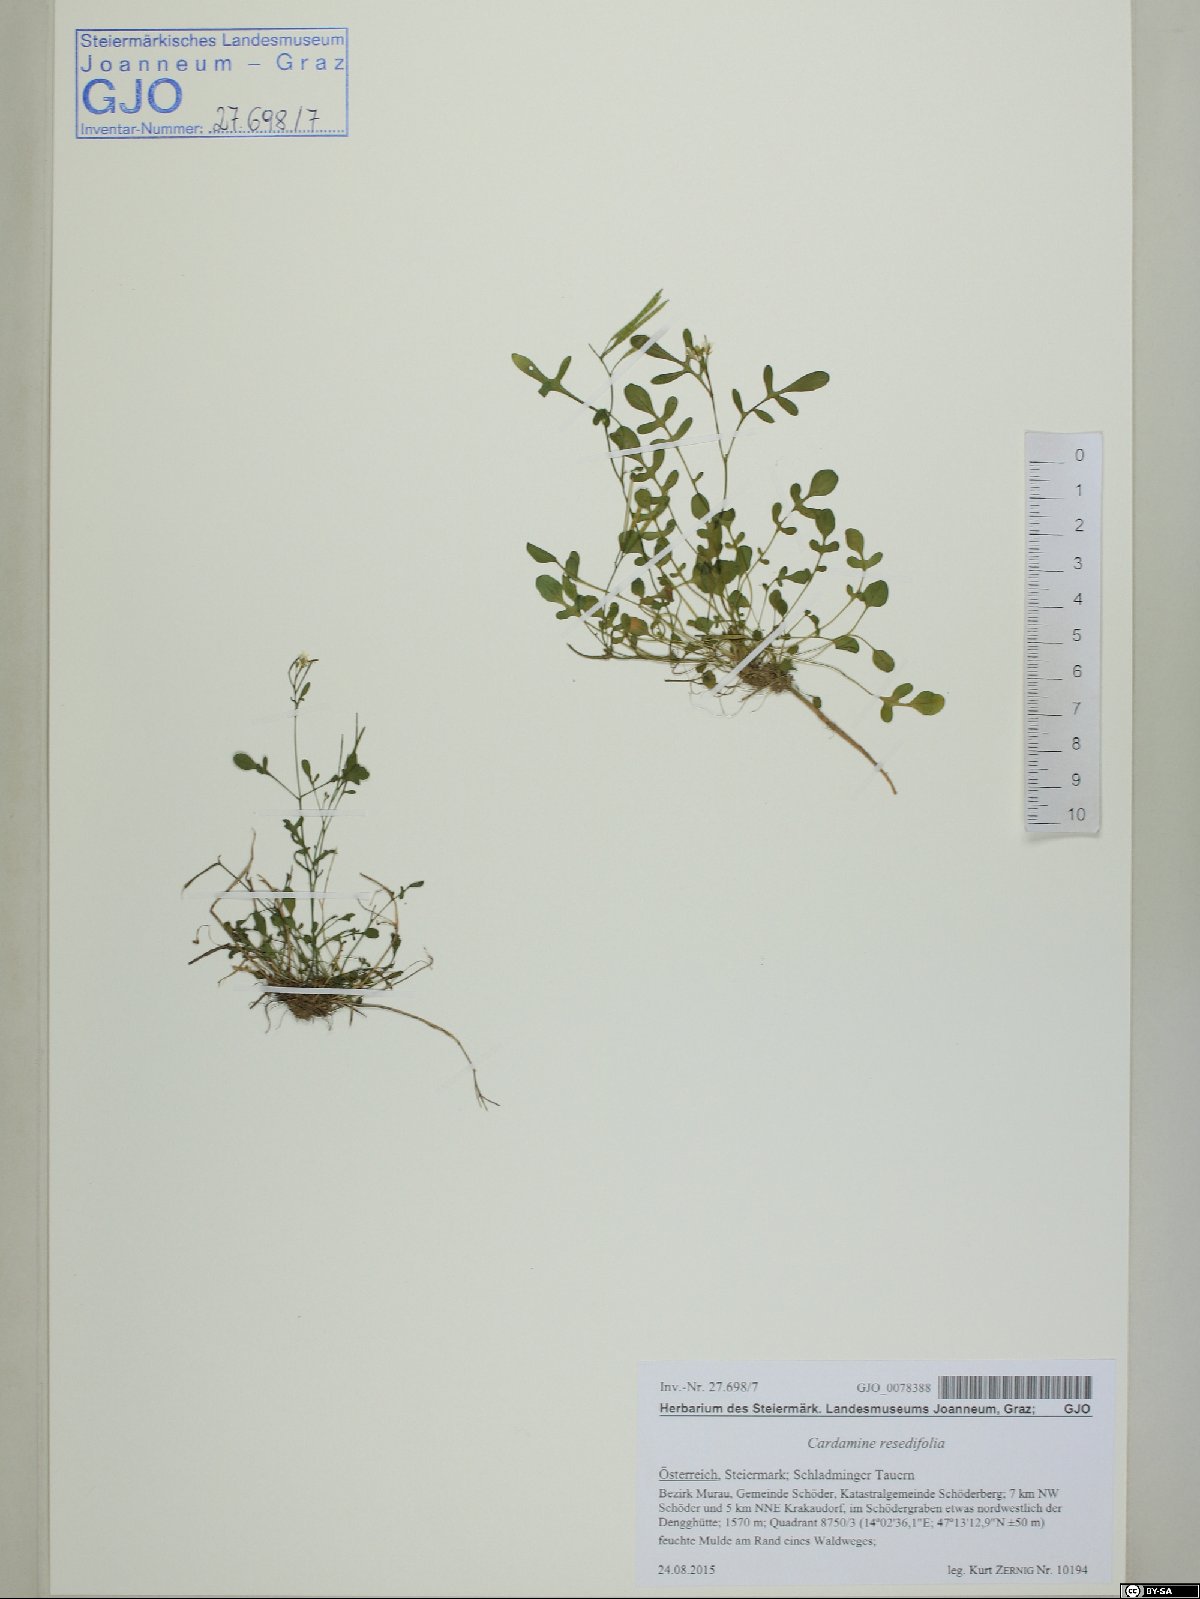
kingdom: Plantae
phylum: Tracheophyta
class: Magnoliopsida
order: Brassicales
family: Brassicaceae
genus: Cardamine
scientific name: Cardamine resedifolia
